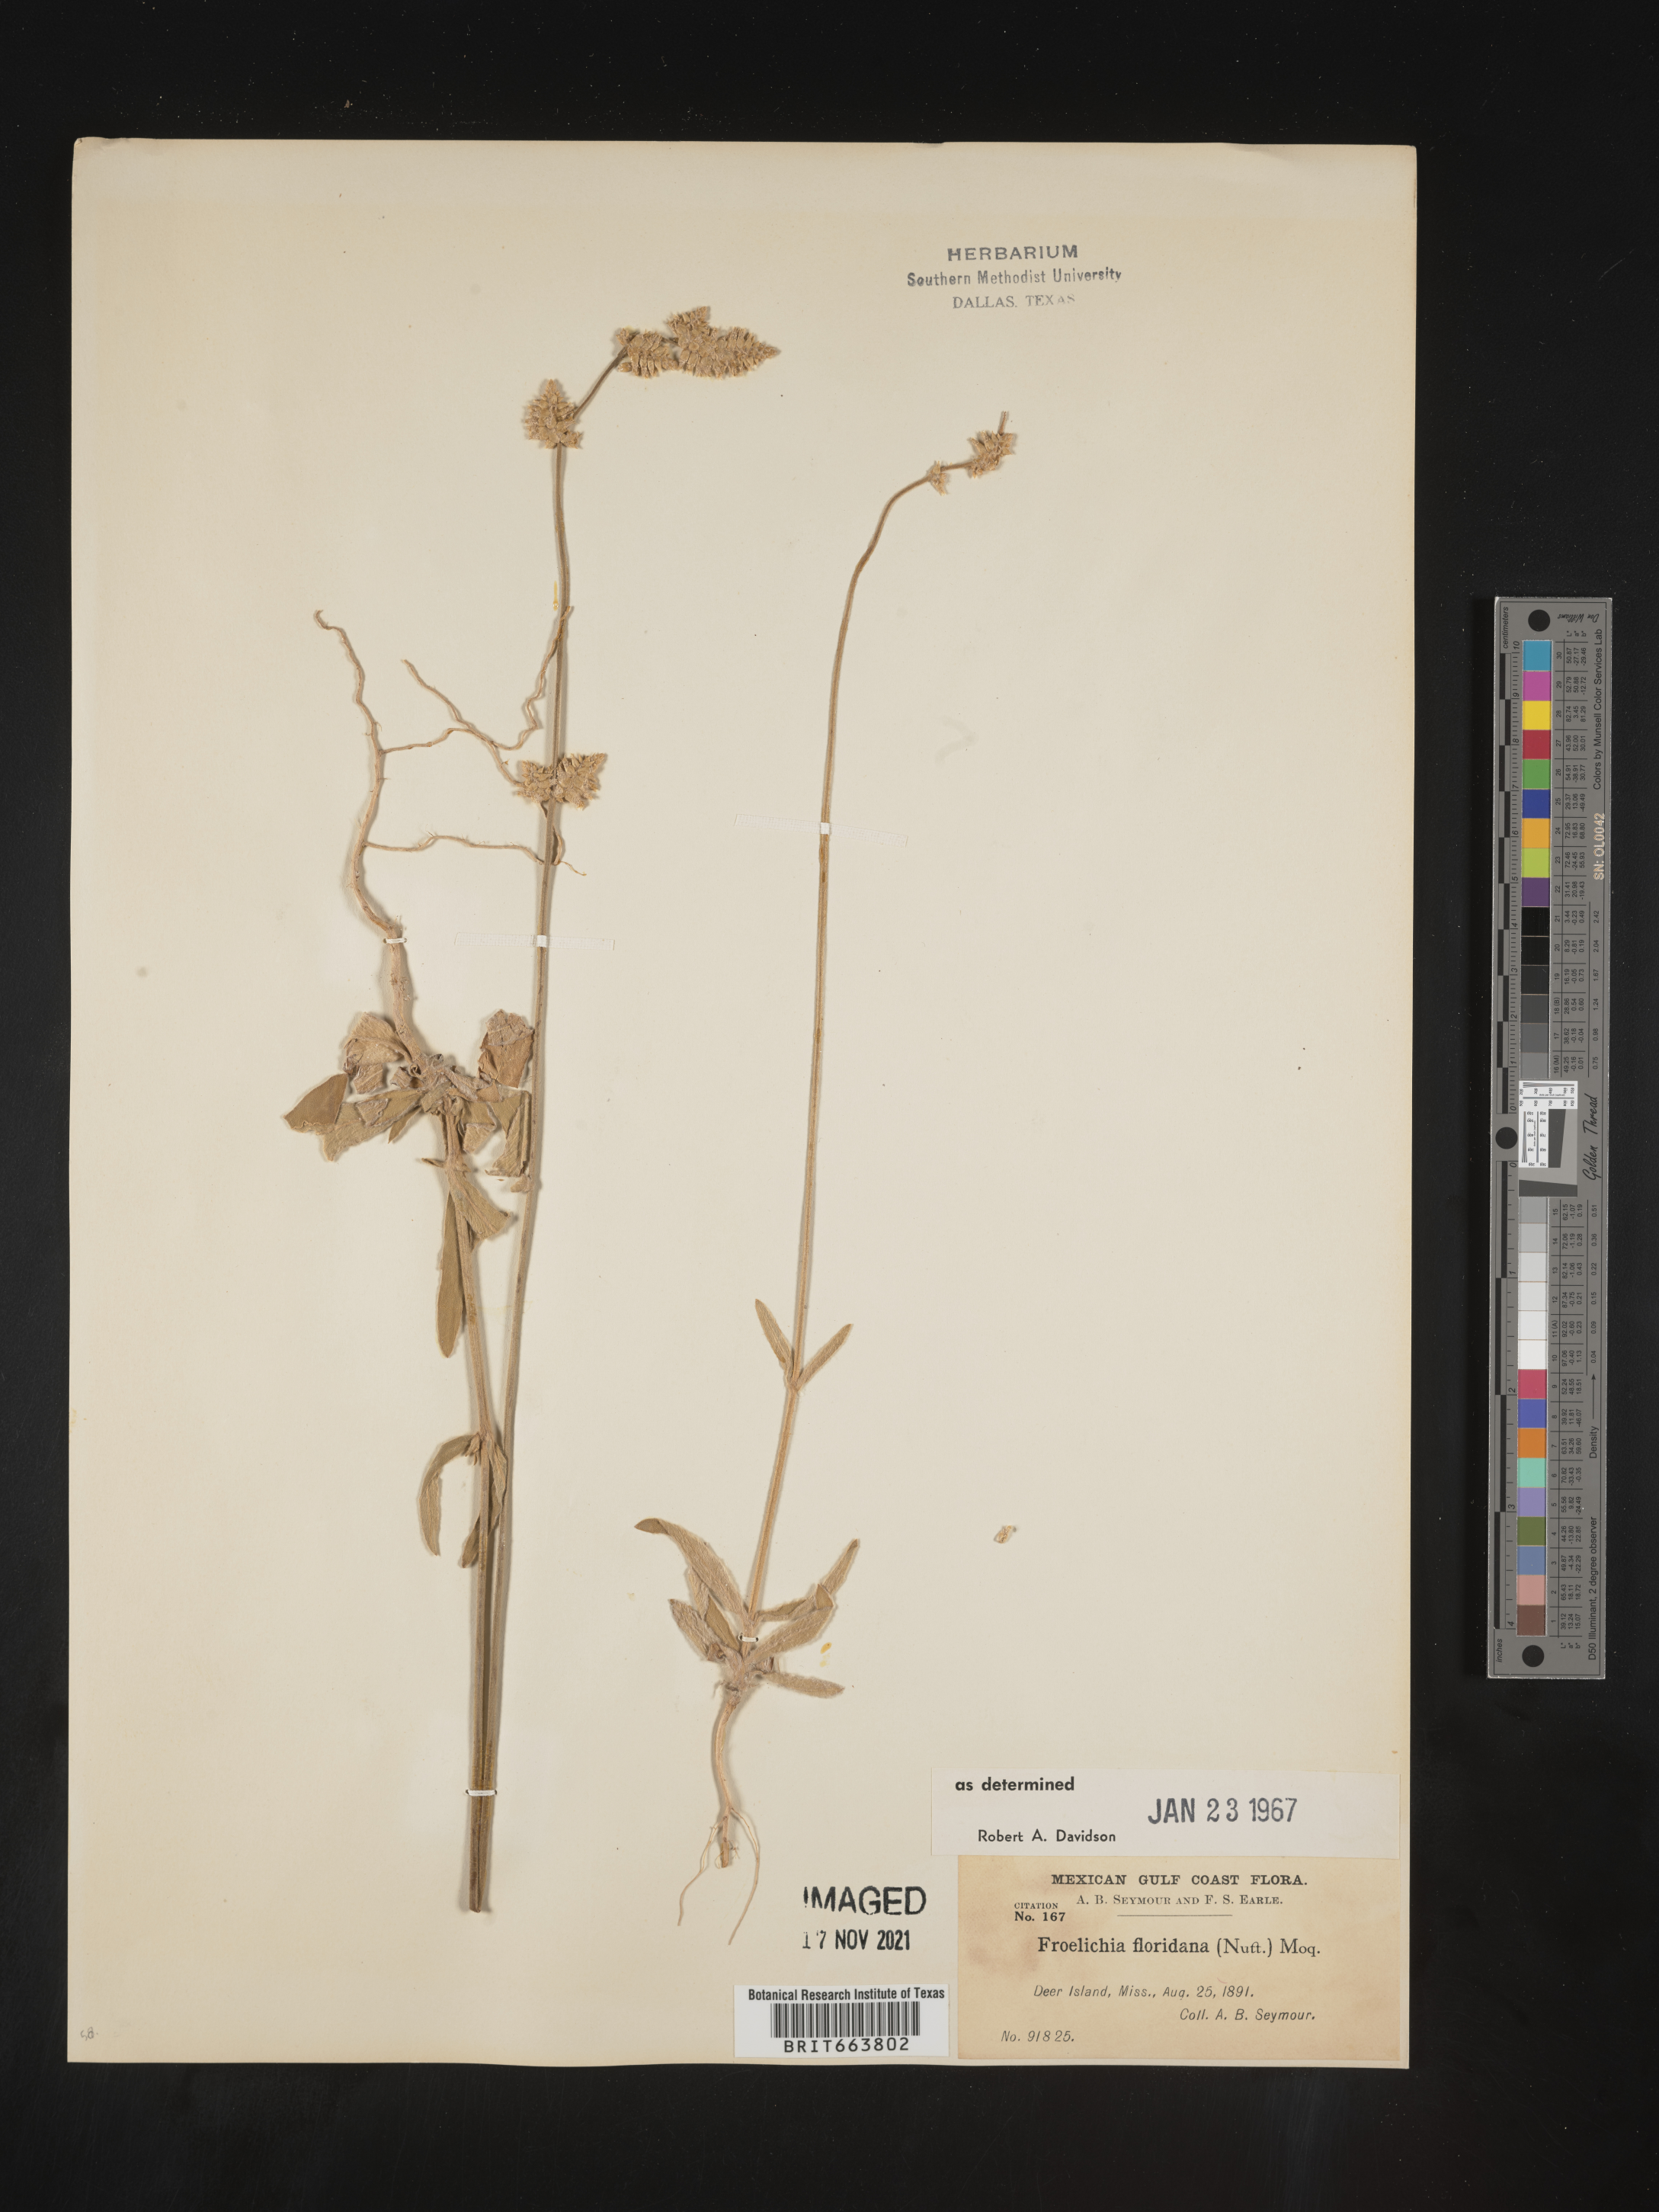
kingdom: Plantae
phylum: Tracheophyta
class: Magnoliopsida
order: Caryophyllales
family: Amaranthaceae
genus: Froelichia
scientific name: Froelichia floridana
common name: Florida snake-cotton
